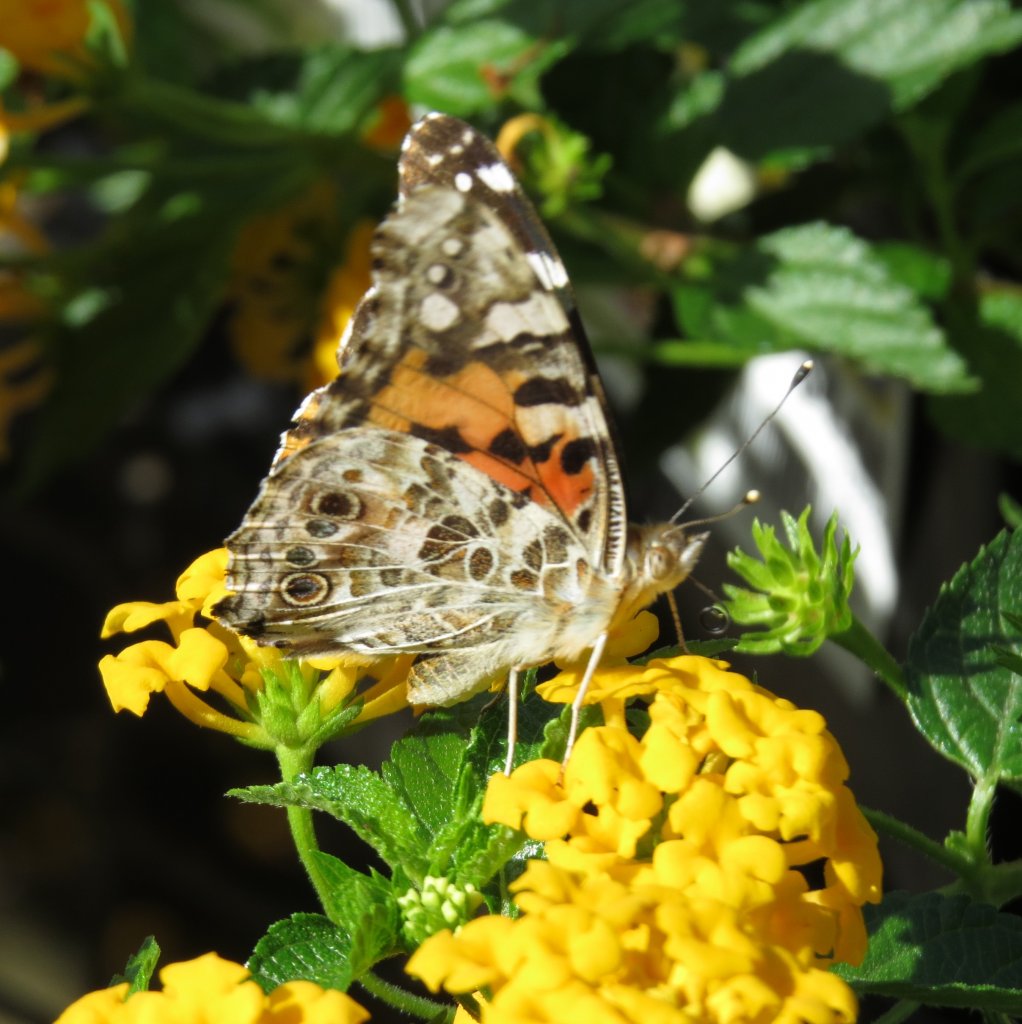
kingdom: Animalia
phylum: Arthropoda
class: Insecta
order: Lepidoptera
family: Nymphalidae
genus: Vanessa
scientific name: Vanessa cardui
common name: Painted Lady
